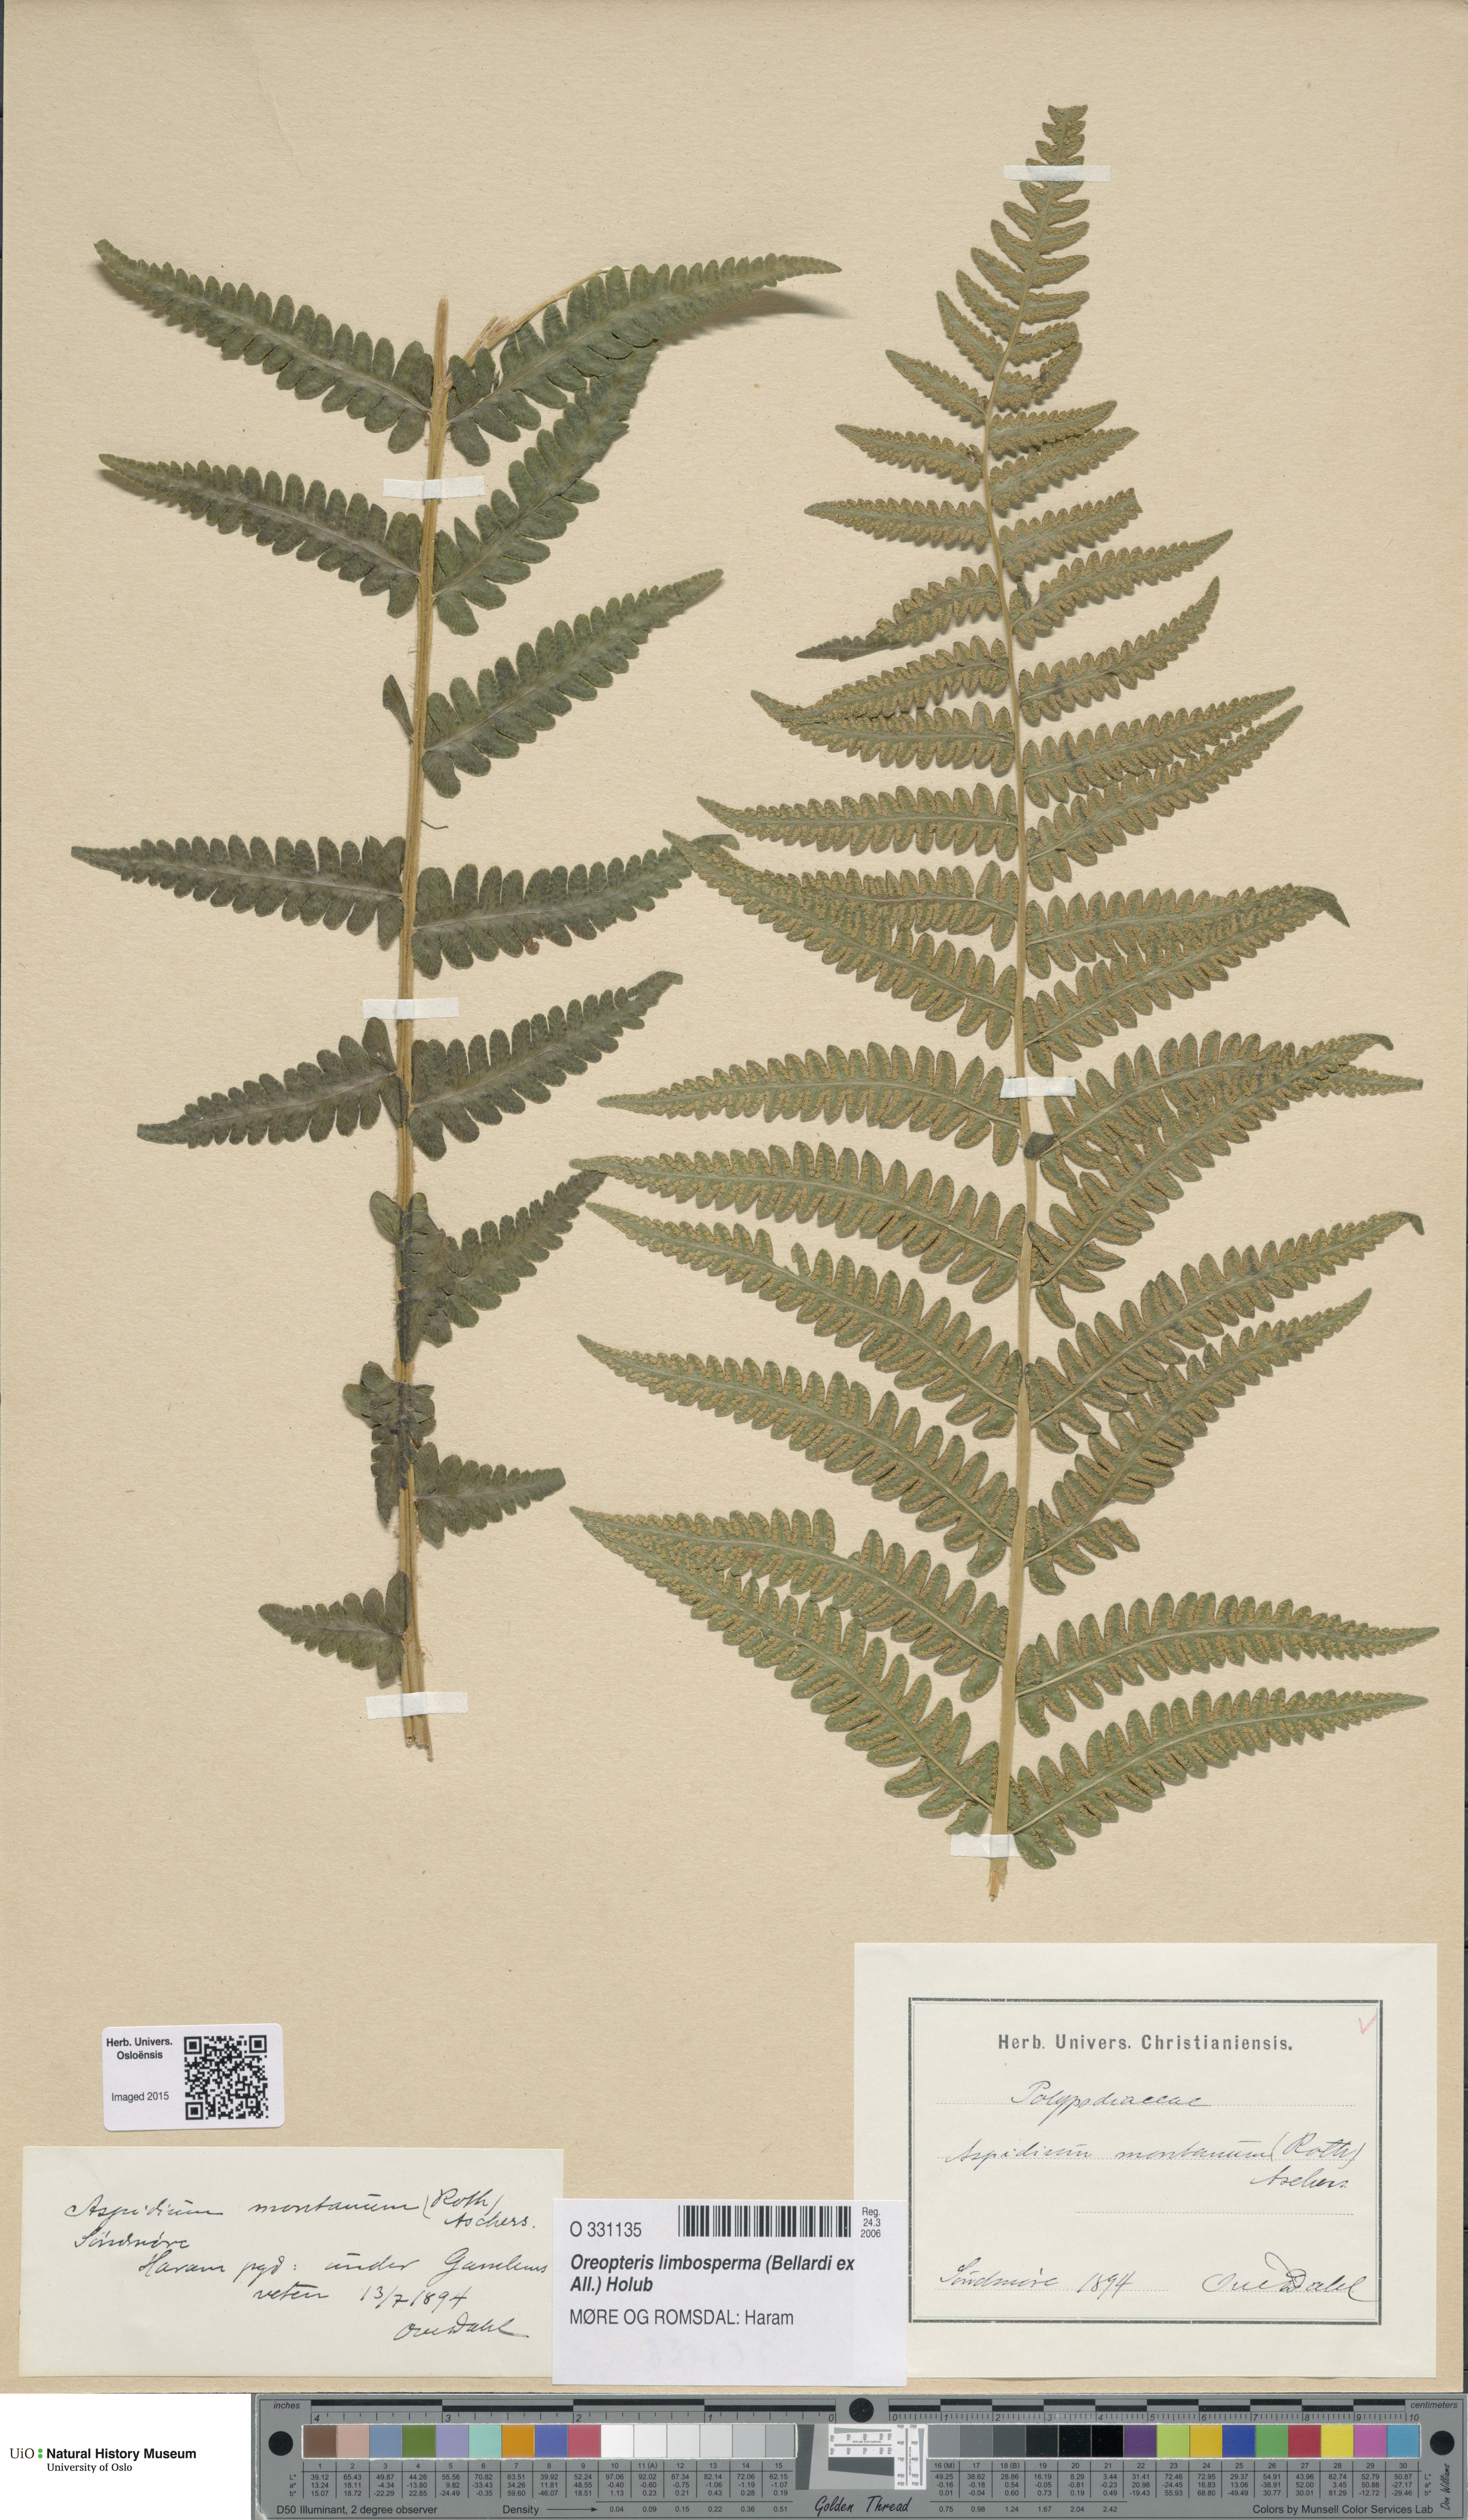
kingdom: Plantae
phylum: Tracheophyta
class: Polypodiopsida
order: Polypodiales
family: Thelypteridaceae
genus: Oreopteris
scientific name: Oreopteris limbosperma
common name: Lemon-scented fern
